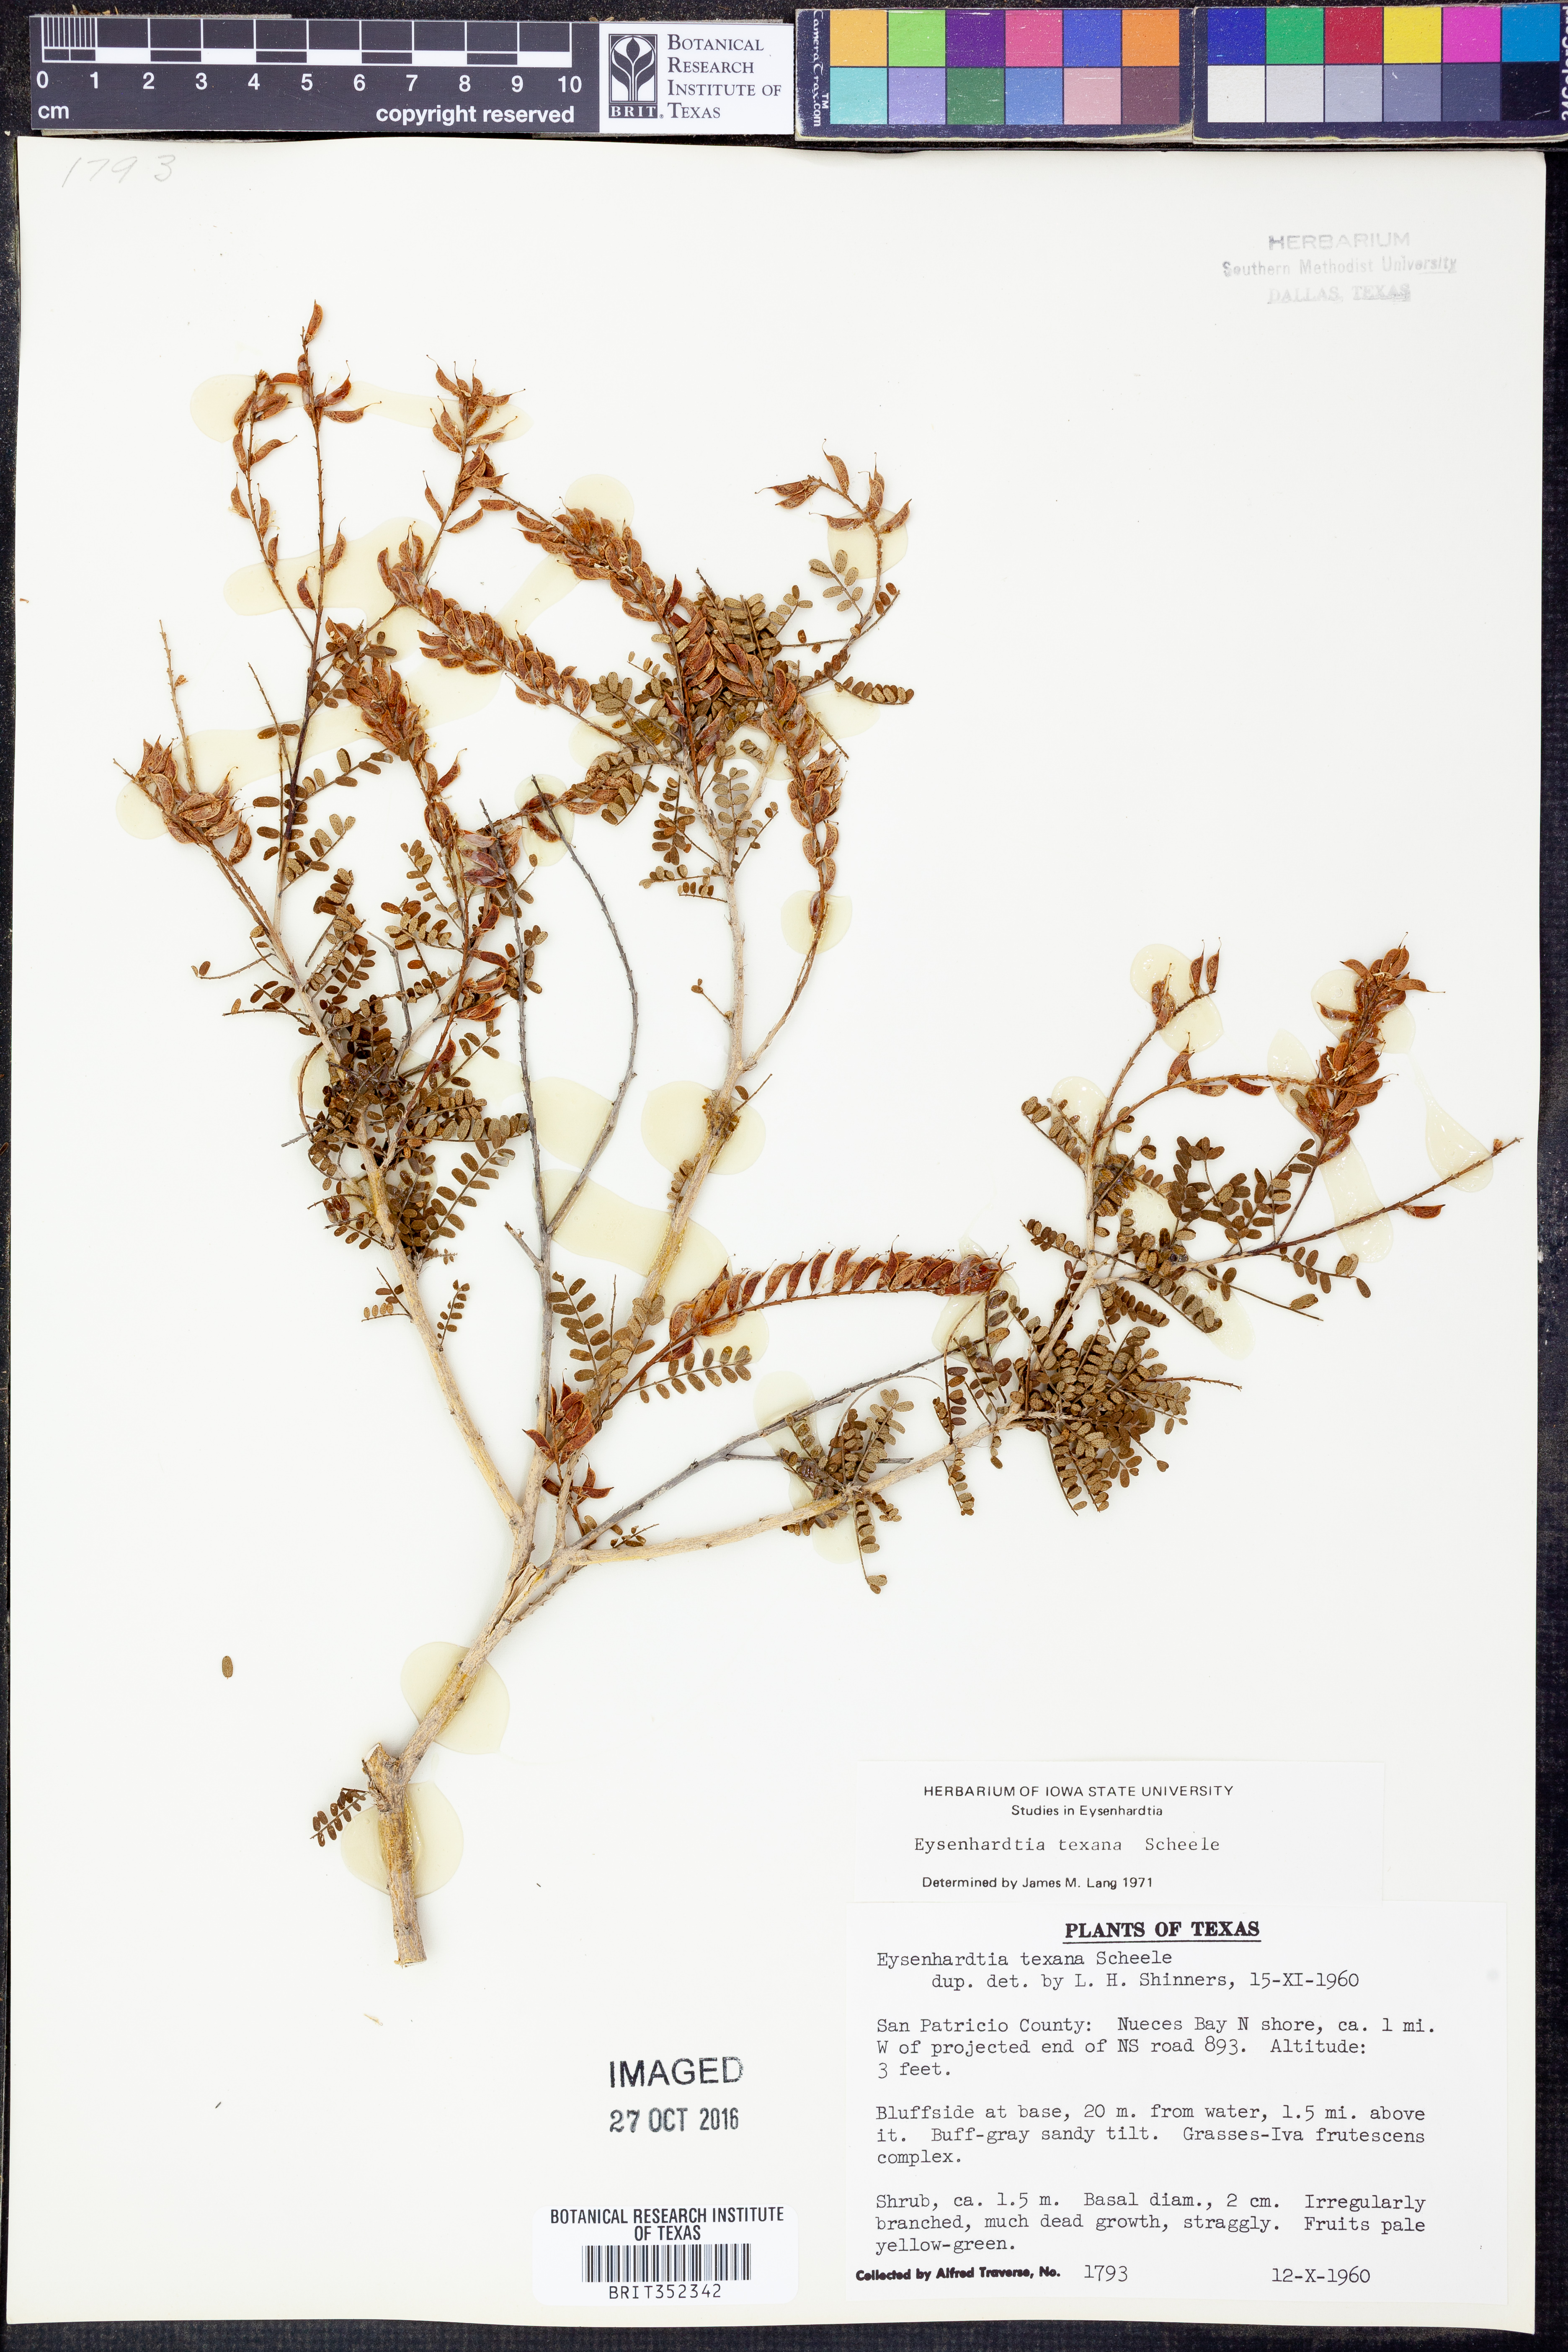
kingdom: Plantae
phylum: Tracheophyta
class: Magnoliopsida
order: Fabales
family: Fabaceae
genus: Eysenhardtia
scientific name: Eysenhardtia texana
